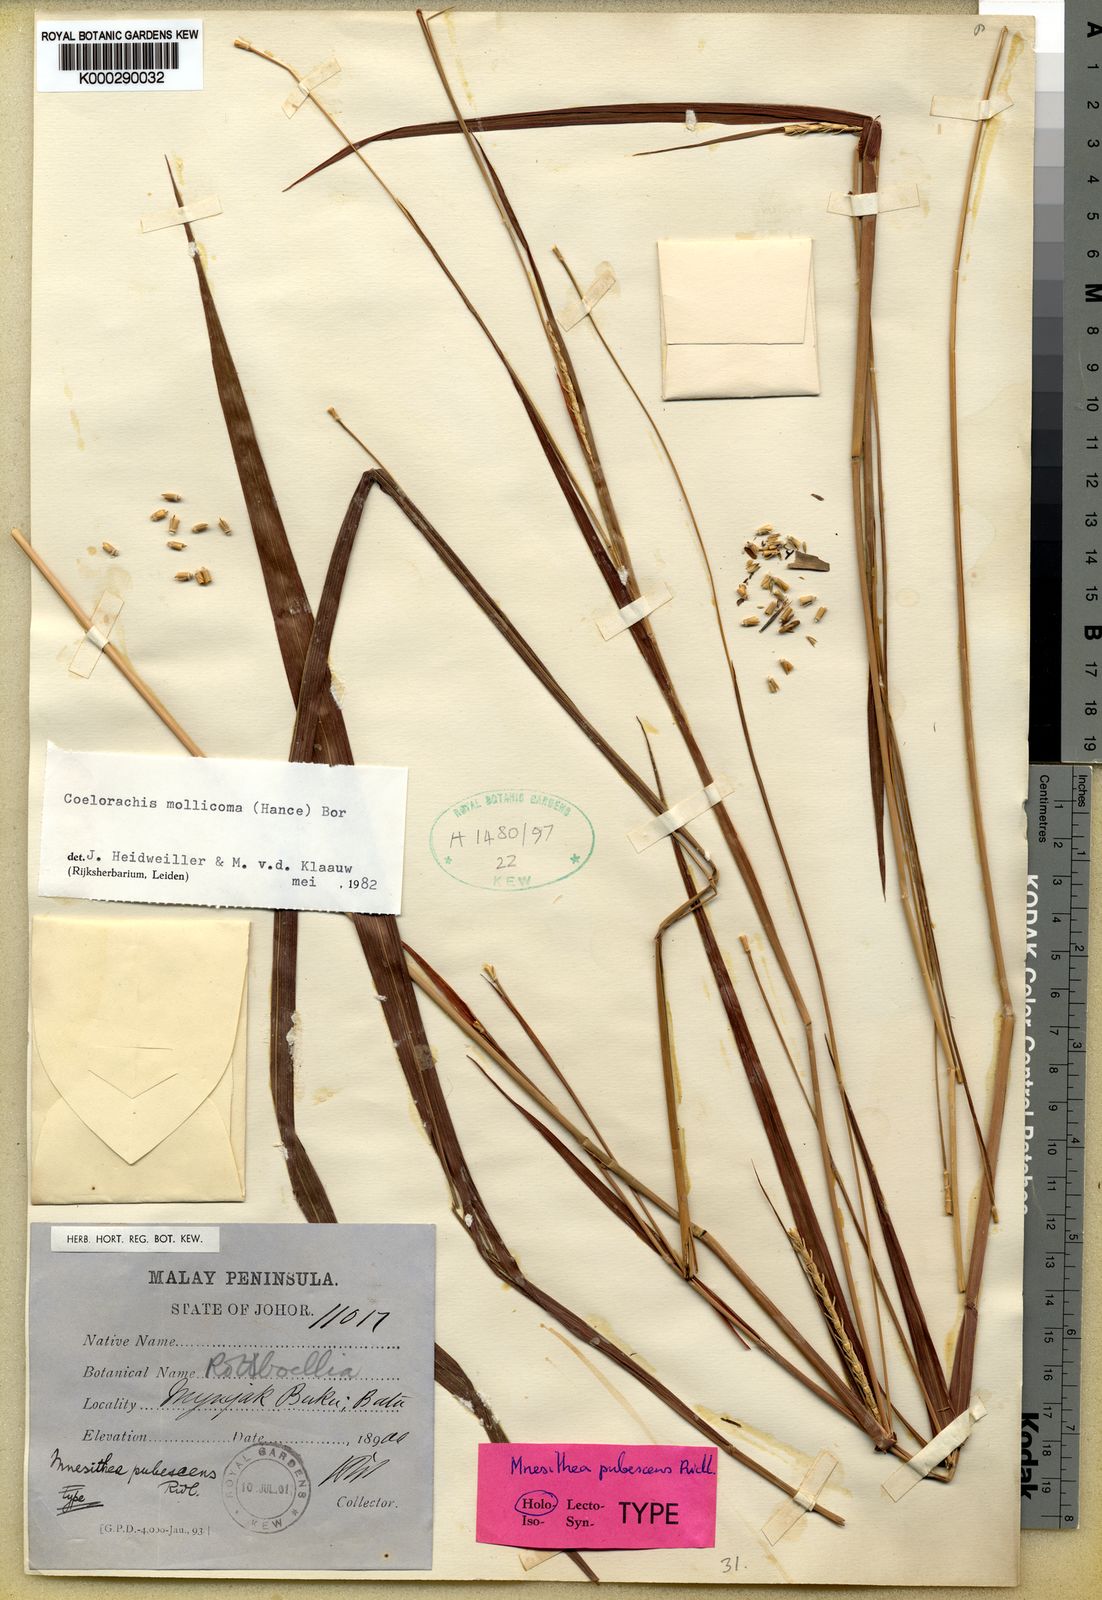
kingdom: Plantae
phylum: Tracheophyta
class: Liliopsida
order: Poales
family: Poaceae
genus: Mnesithea
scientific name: Mnesithea mollicoma
